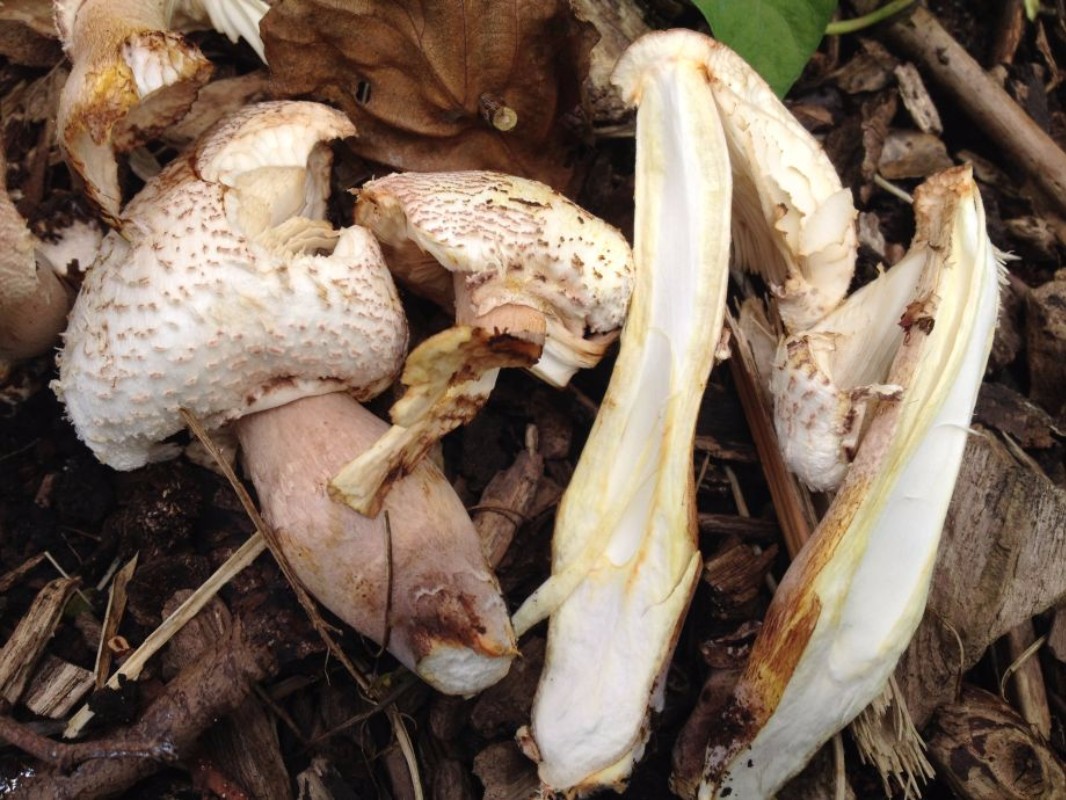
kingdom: Fungi
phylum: Basidiomycota
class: Agaricomycetes
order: Agaricales
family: Agaricaceae
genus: Leucoagaricus
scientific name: Leucoagaricus americanus
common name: stor silkehat
